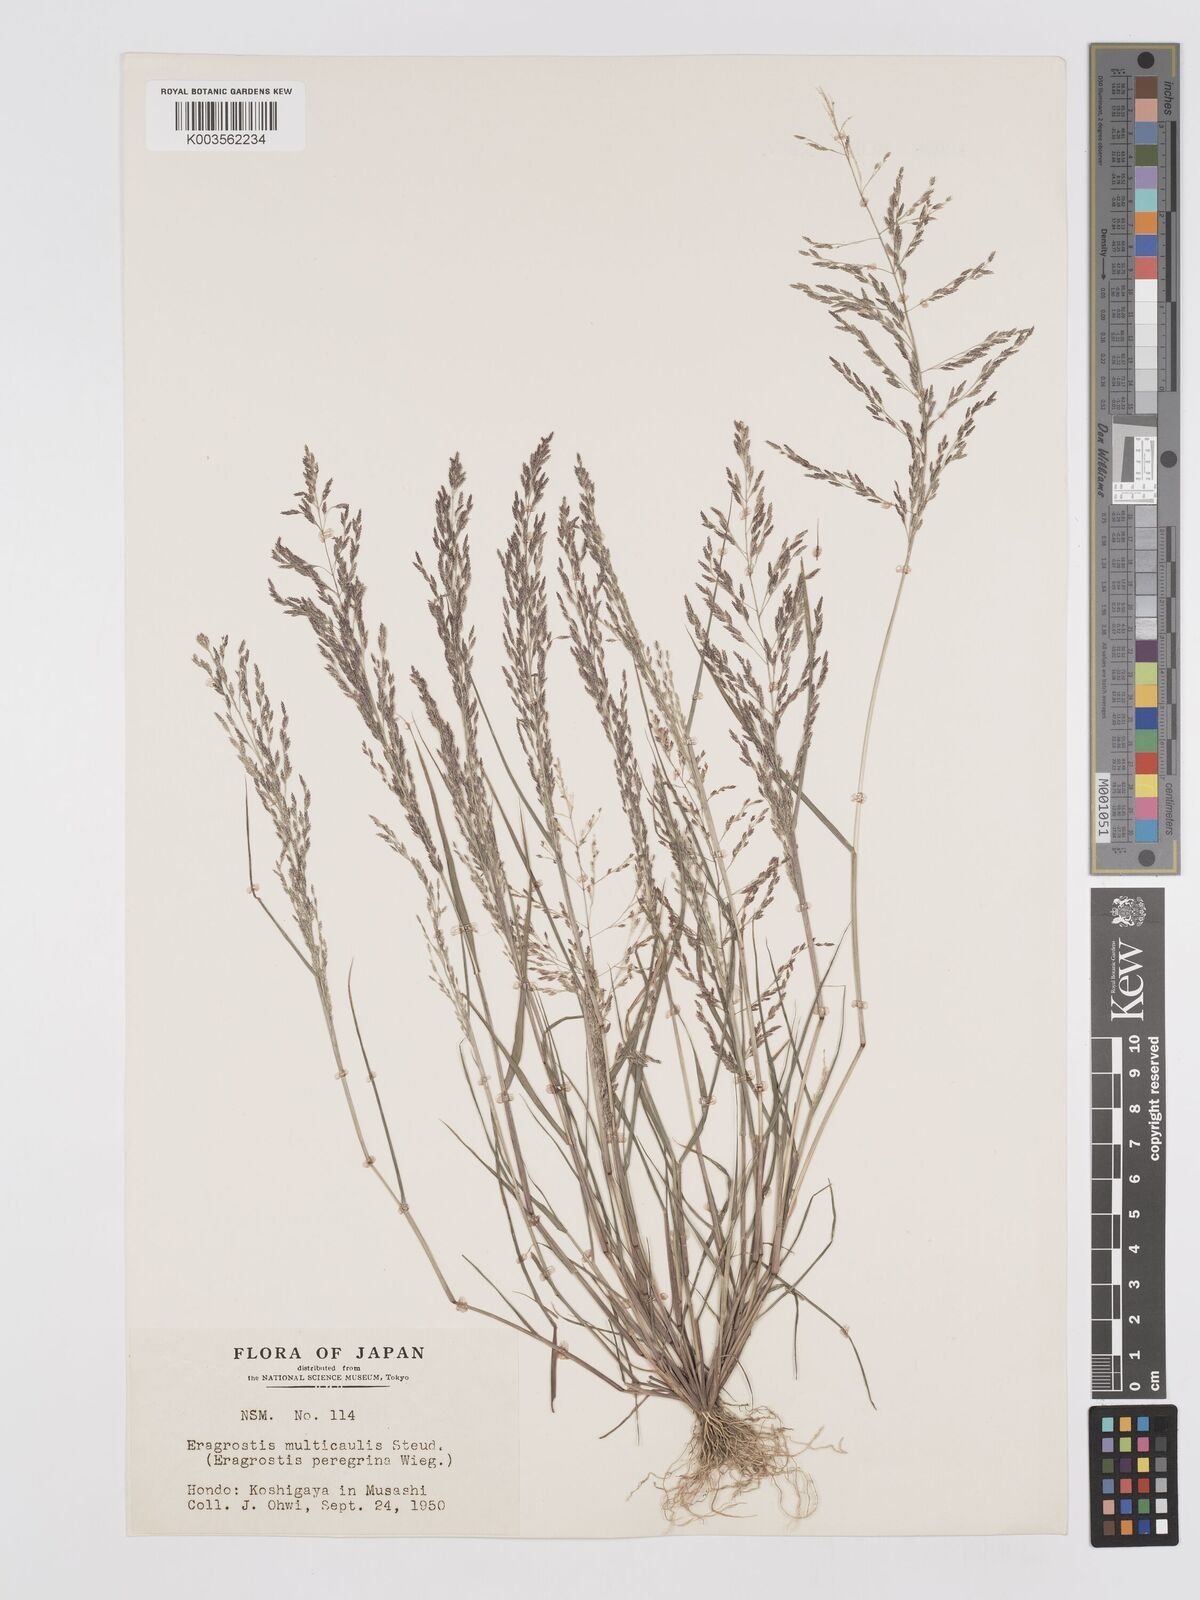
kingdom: Plantae
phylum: Tracheophyta
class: Liliopsida
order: Poales
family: Poaceae
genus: Eragrostis
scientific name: Eragrostis pilosa
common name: Indian lovegrass
